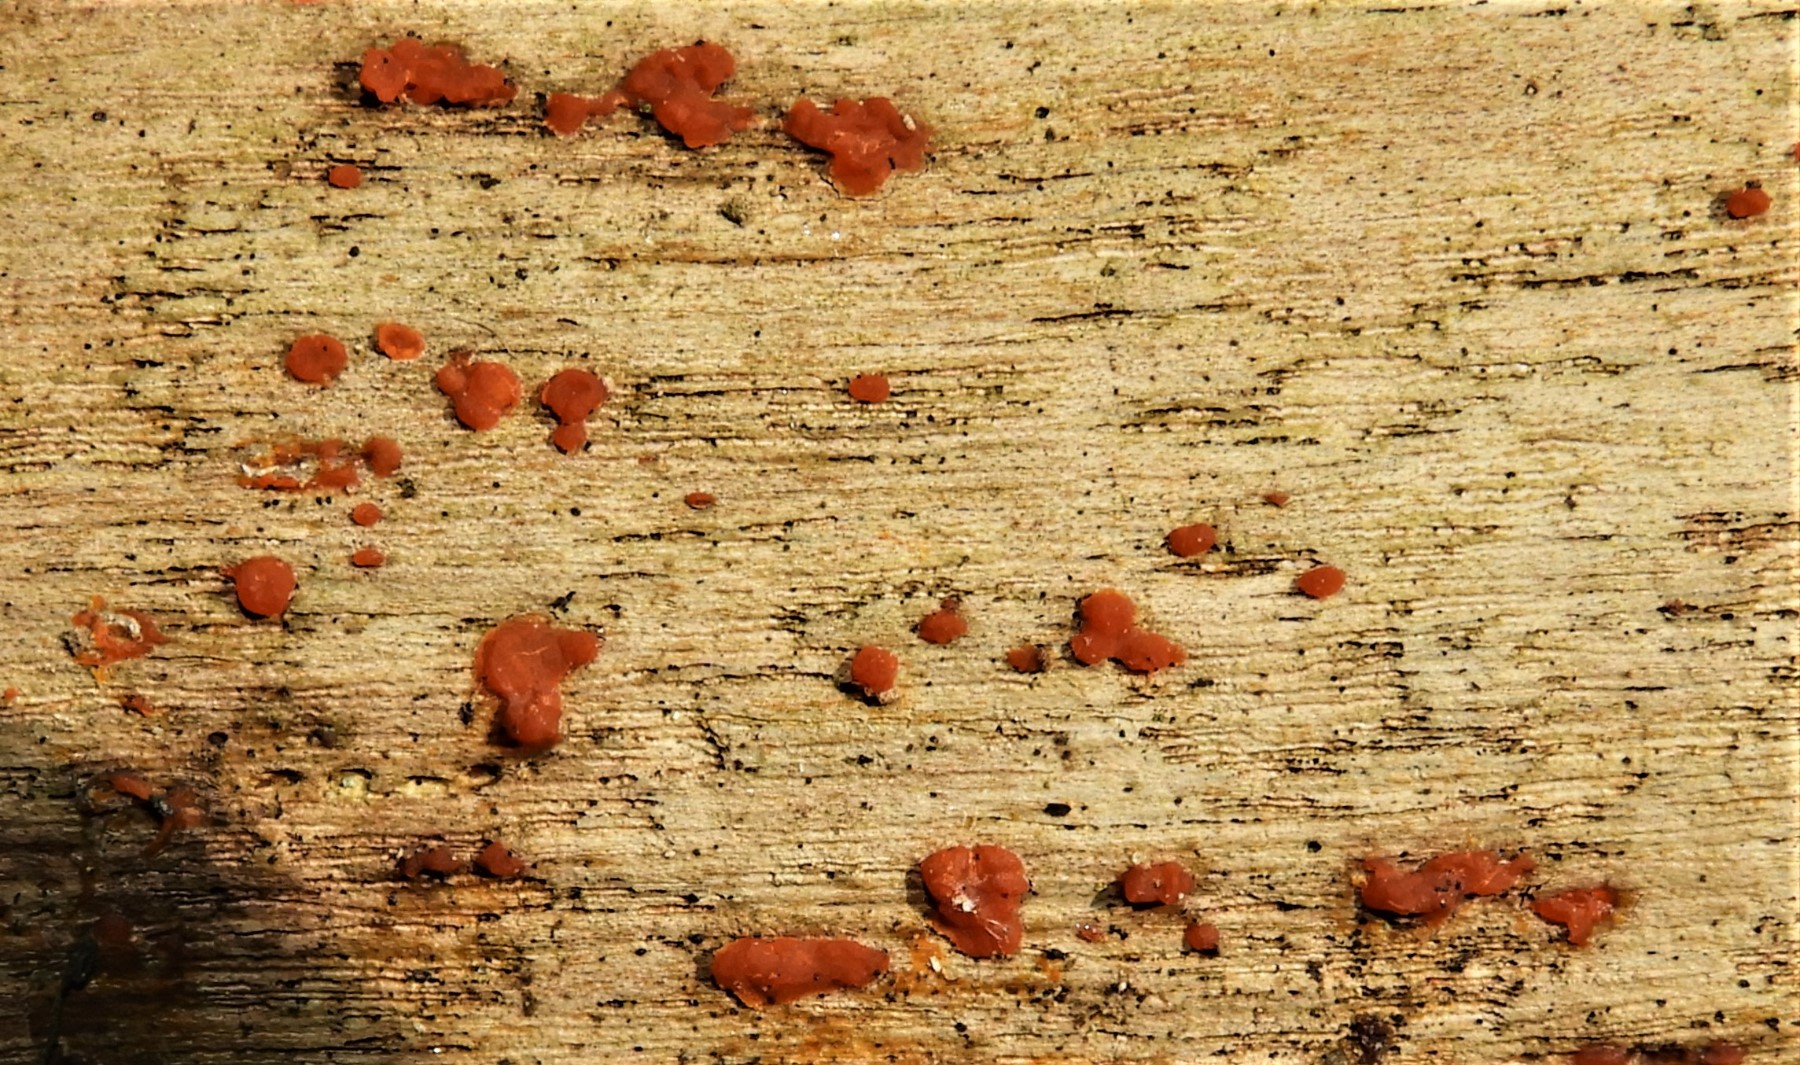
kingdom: Fungi
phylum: Basidiomycota
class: Dacrymycetes
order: Dacrymycetales
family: Dacrymycetaceae
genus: Dacrymyces
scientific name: Dacrymyces stillatus
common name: almindelig tåresvamp
